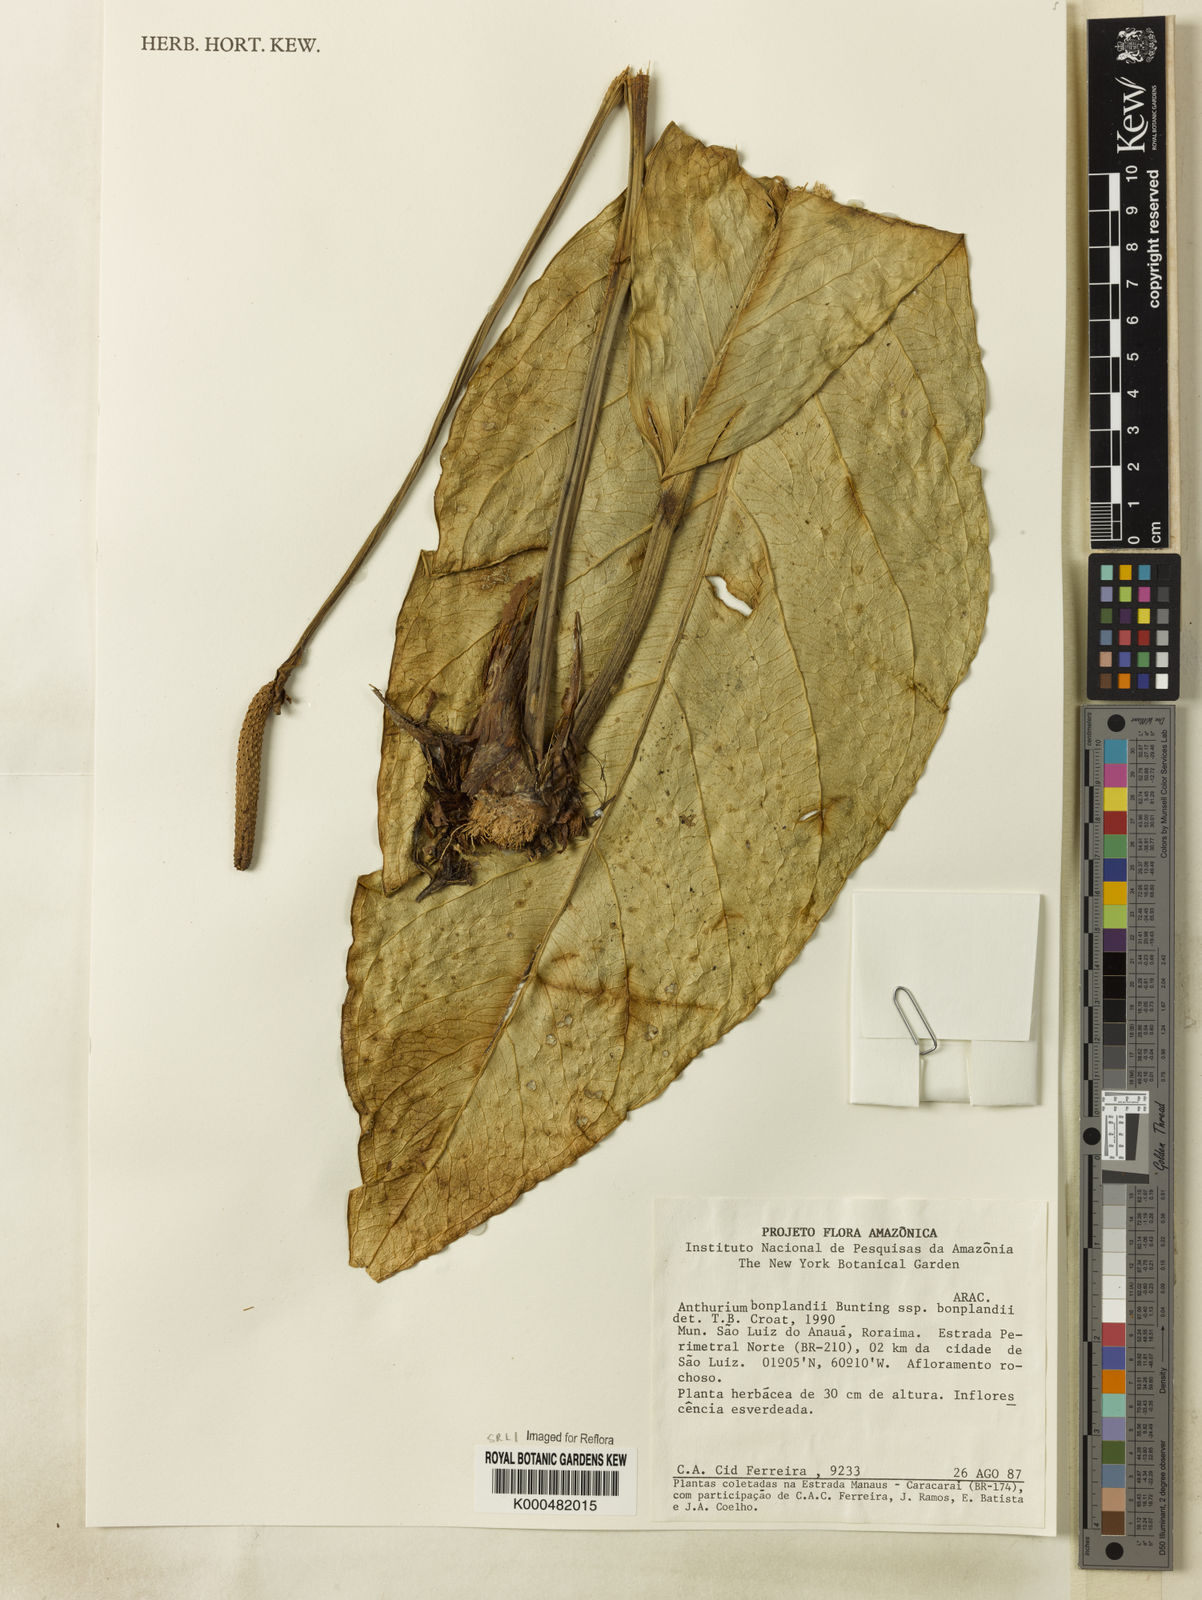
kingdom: Plantae
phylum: Tracheophyta
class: Liliopsida
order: Alismatales
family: Araceae
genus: Anthurium
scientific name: Anthurium bonplandii
